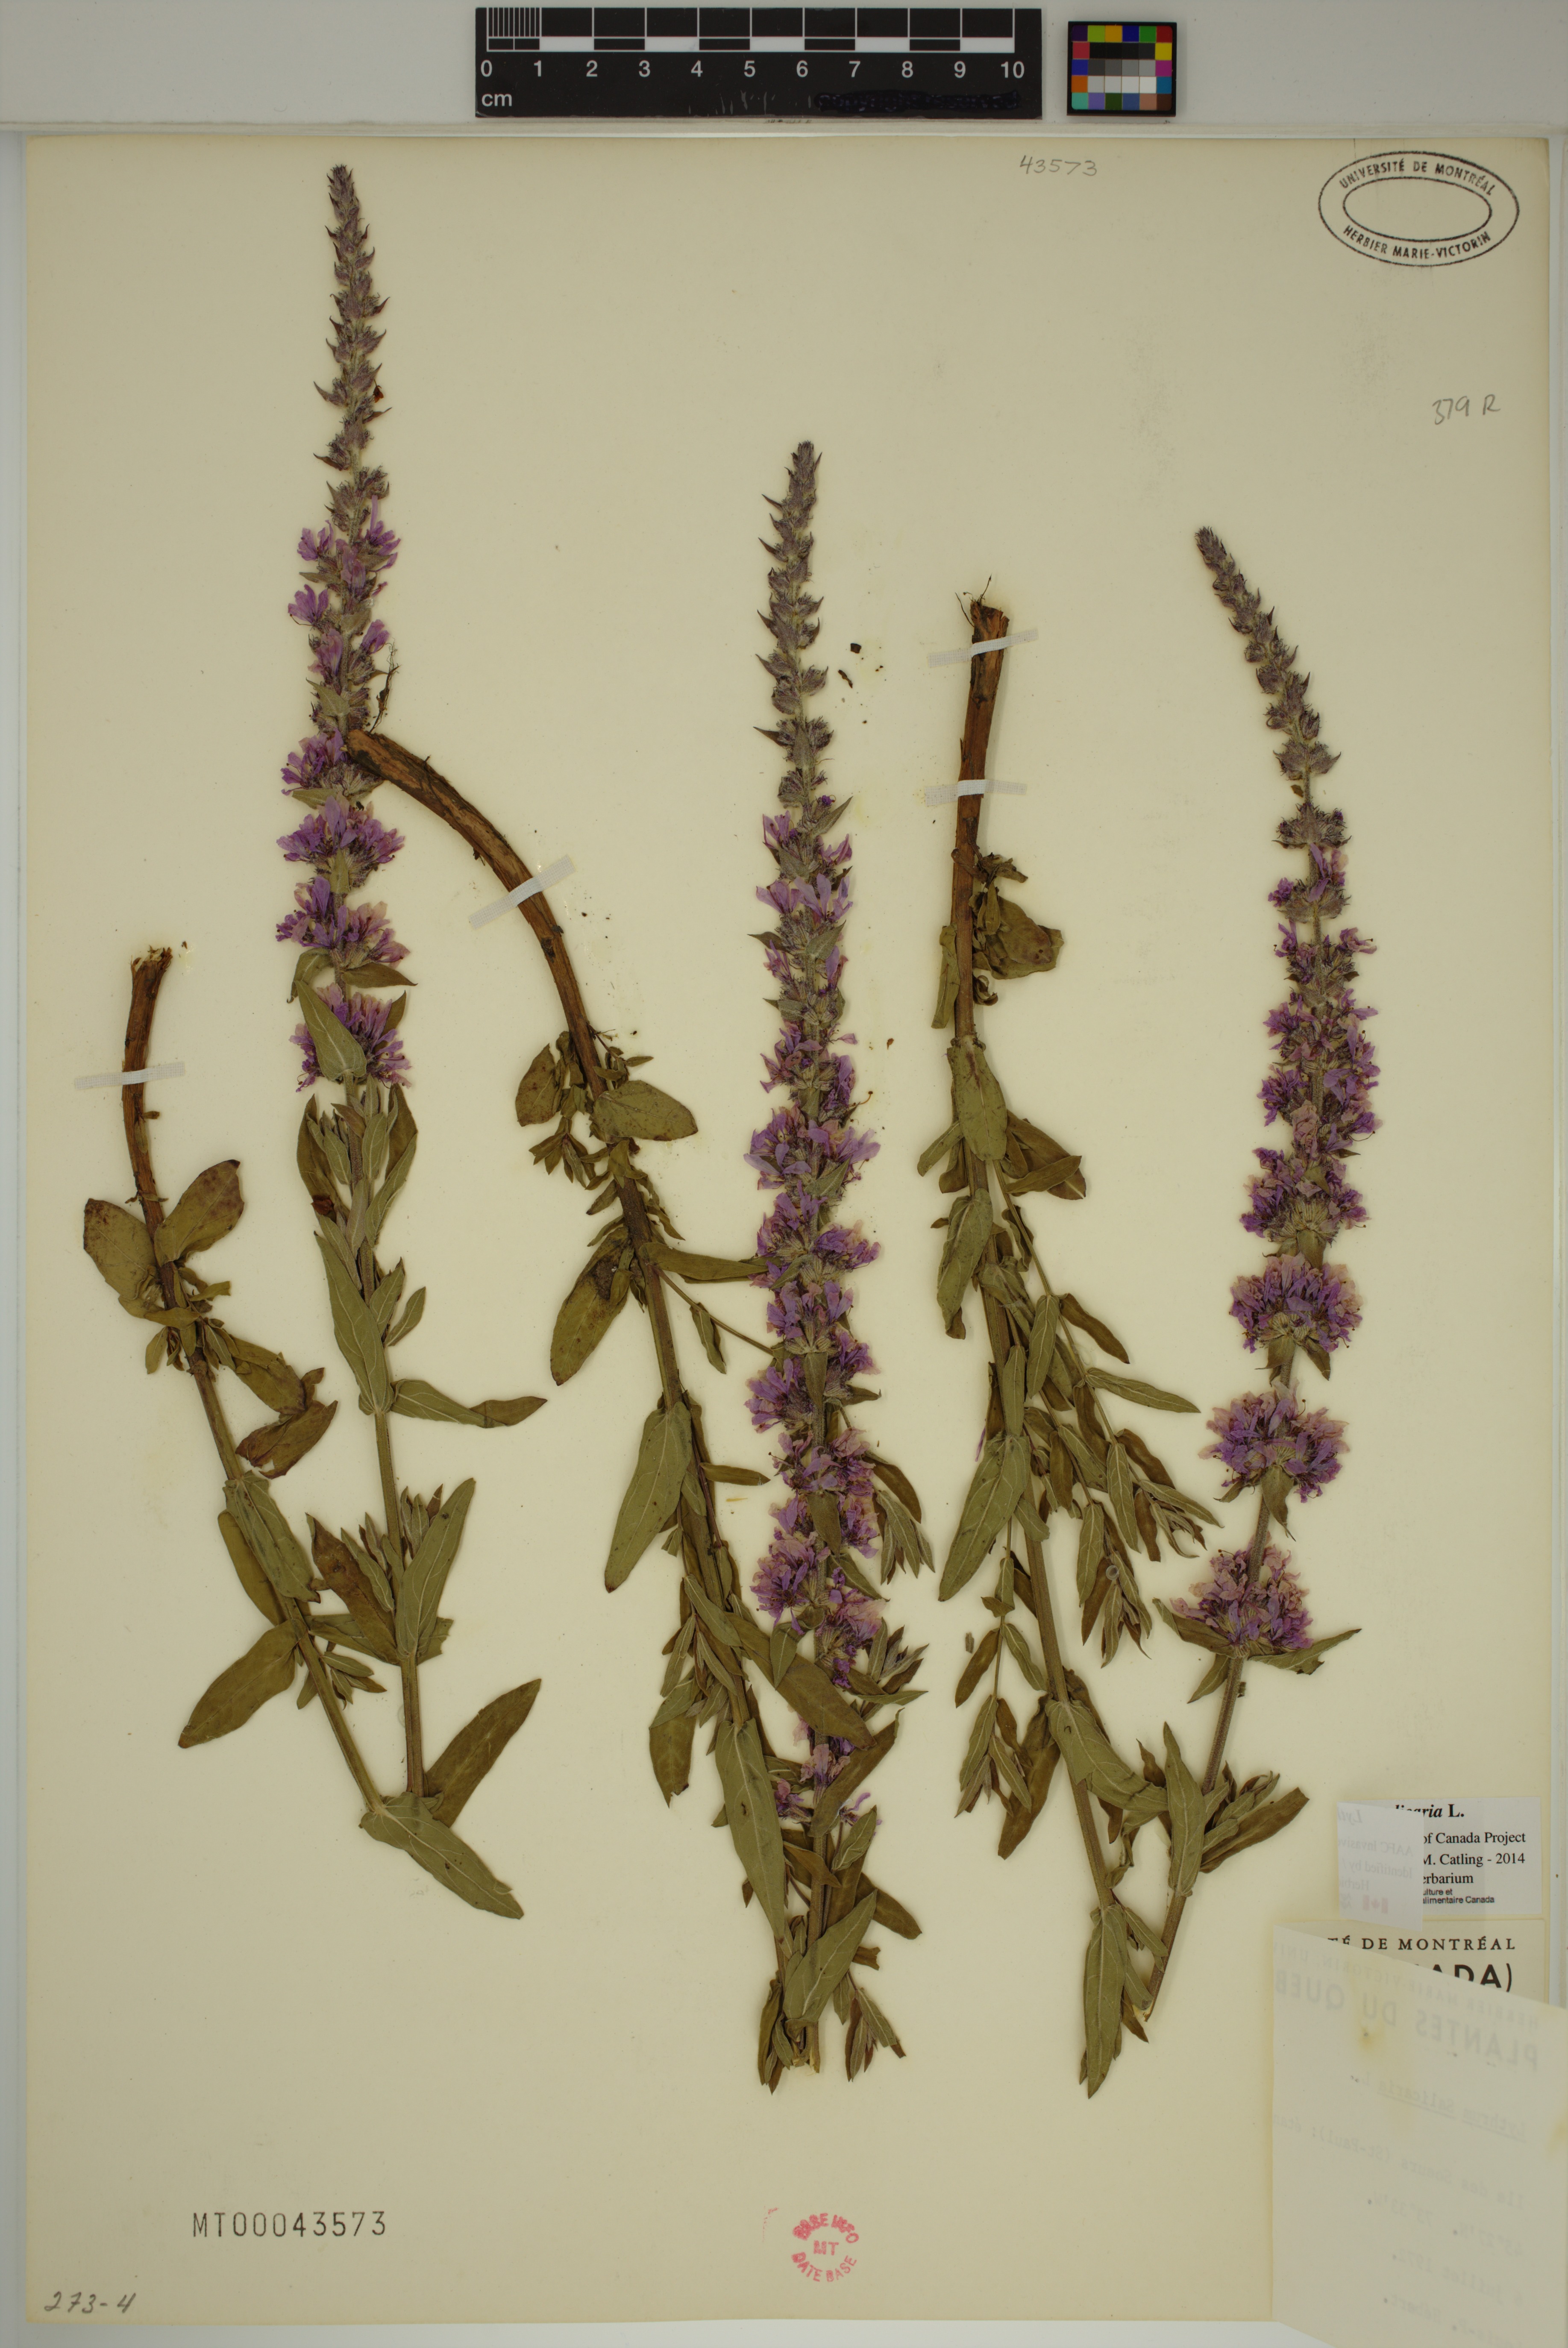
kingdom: Plantae
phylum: Tracheophyta
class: Magnoliopsida
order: Myrtales
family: Lythraceae
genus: Lythrum
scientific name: Lythrum salicaria
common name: Purple loosestrife
